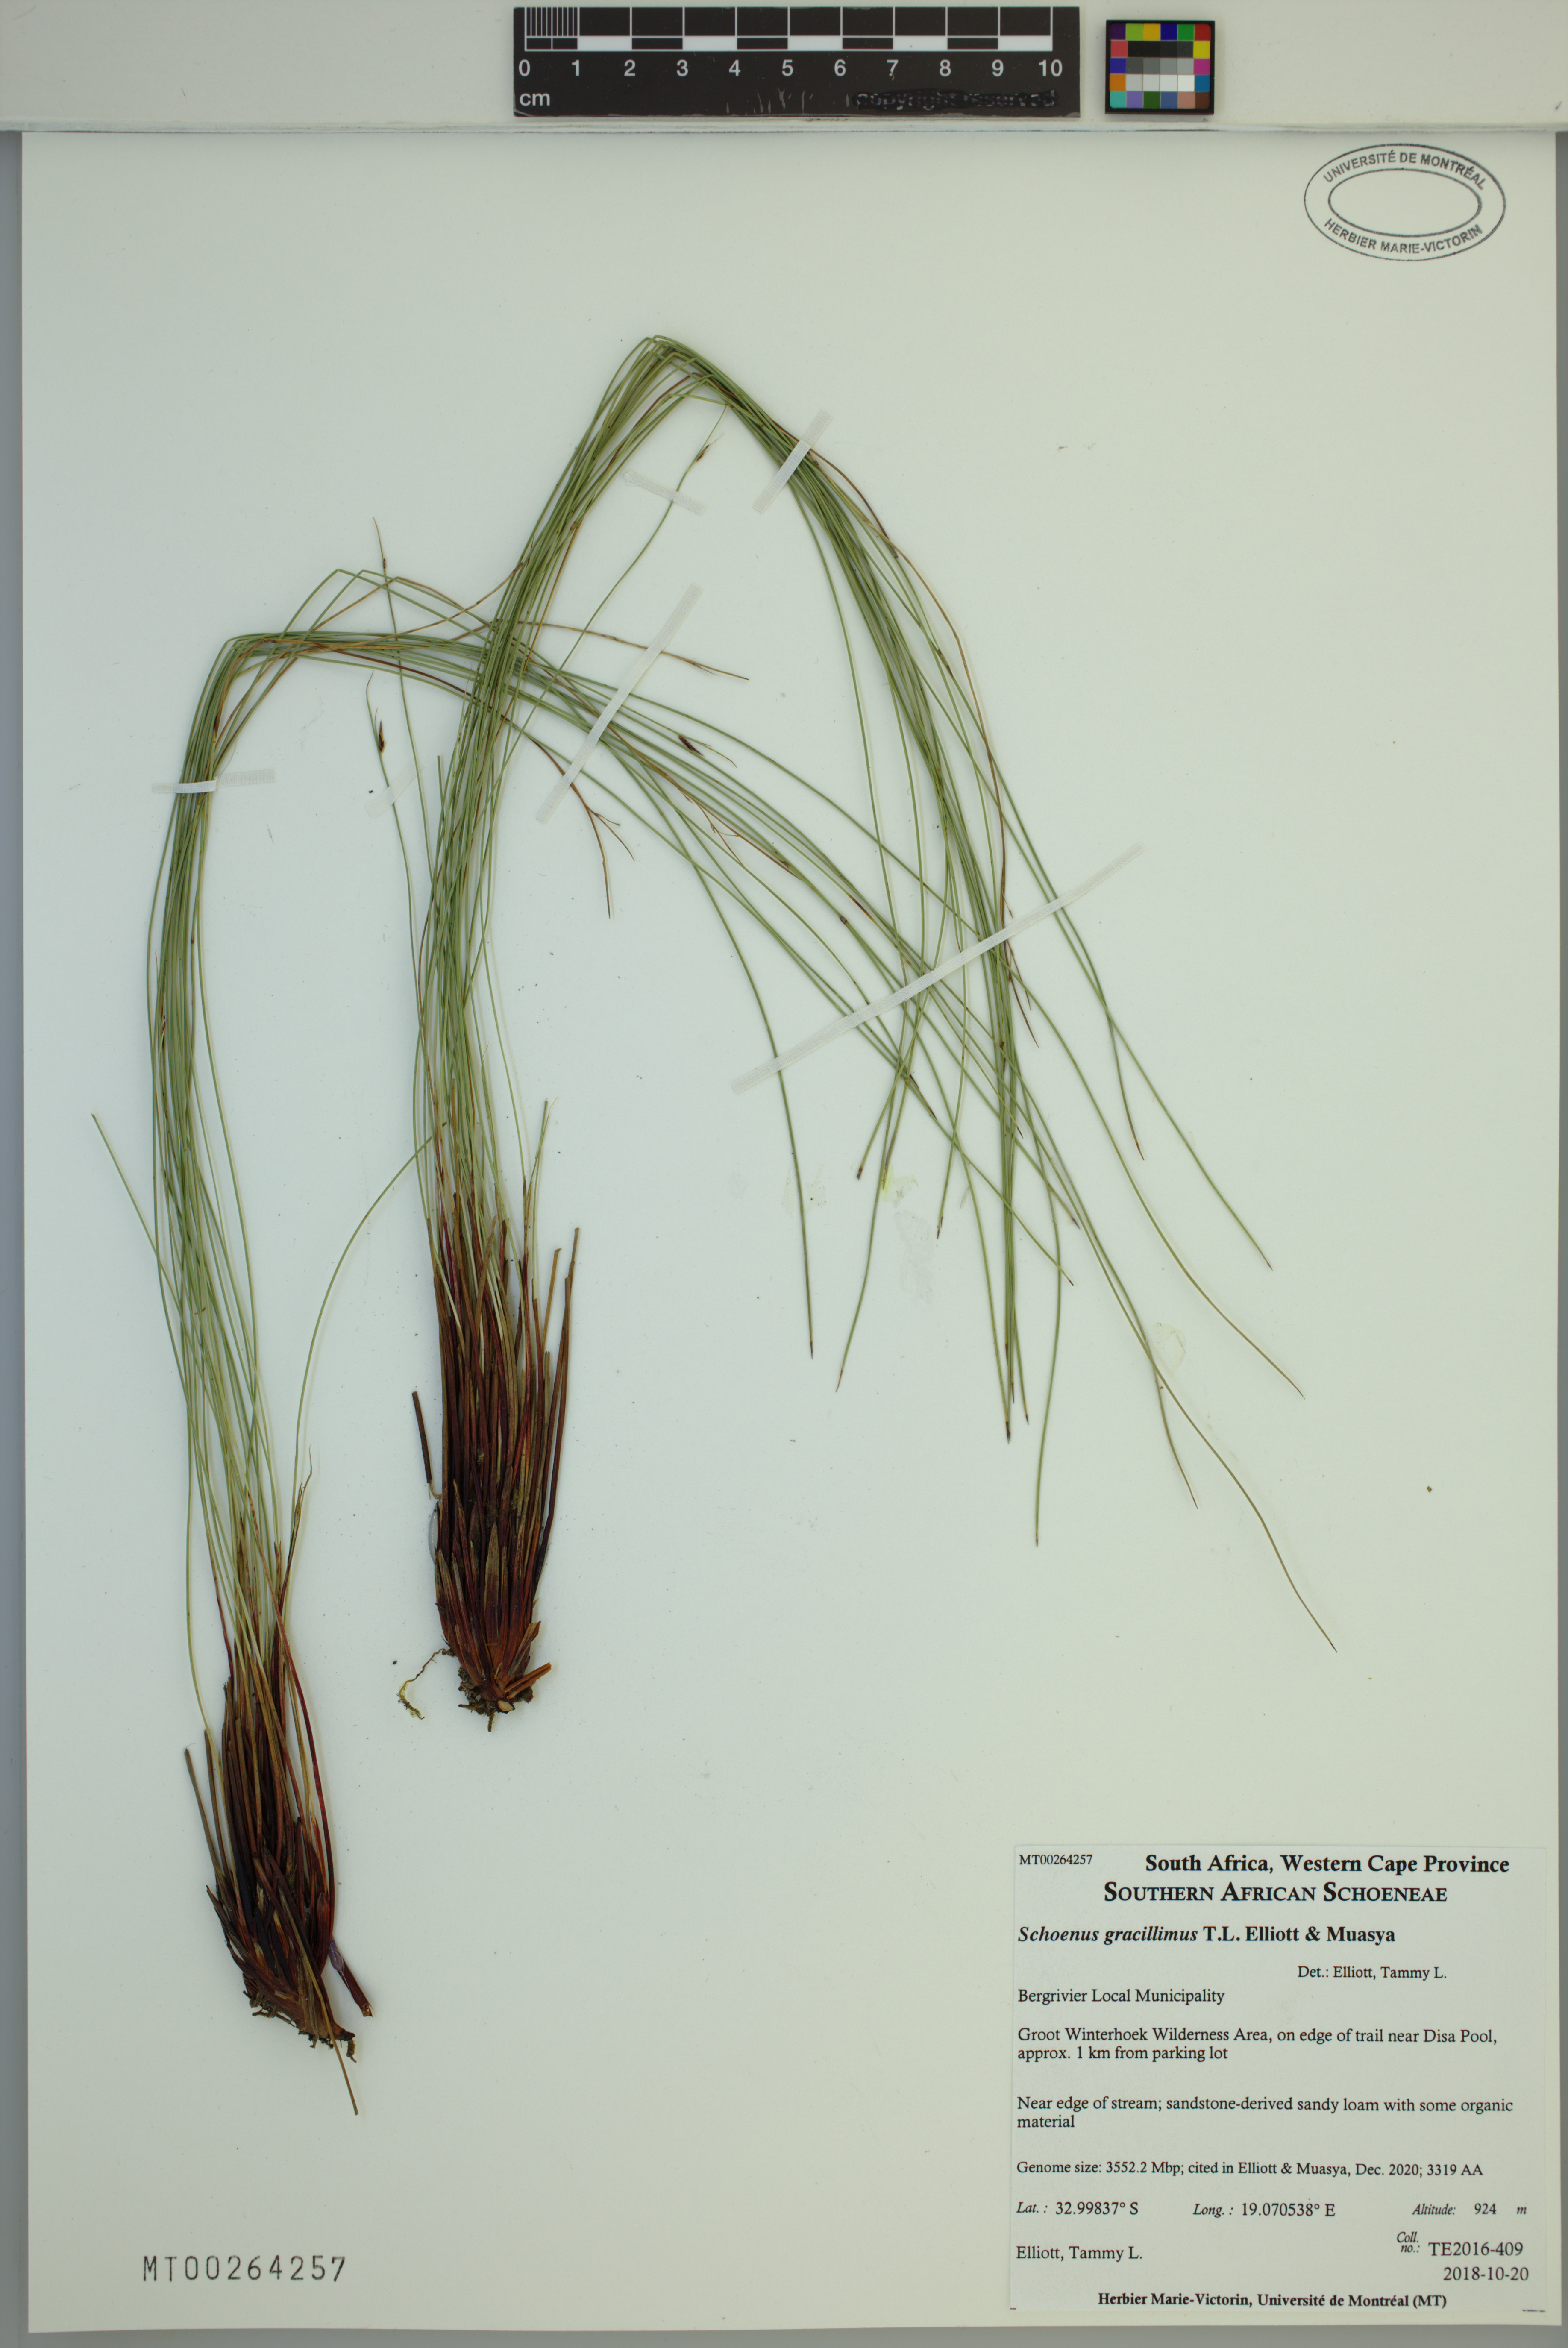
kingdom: Plantae
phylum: Tracheophyta
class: Liliopsida
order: Poales
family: Cyperaceae
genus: Schoenus
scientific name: Schoenus gracillimus
